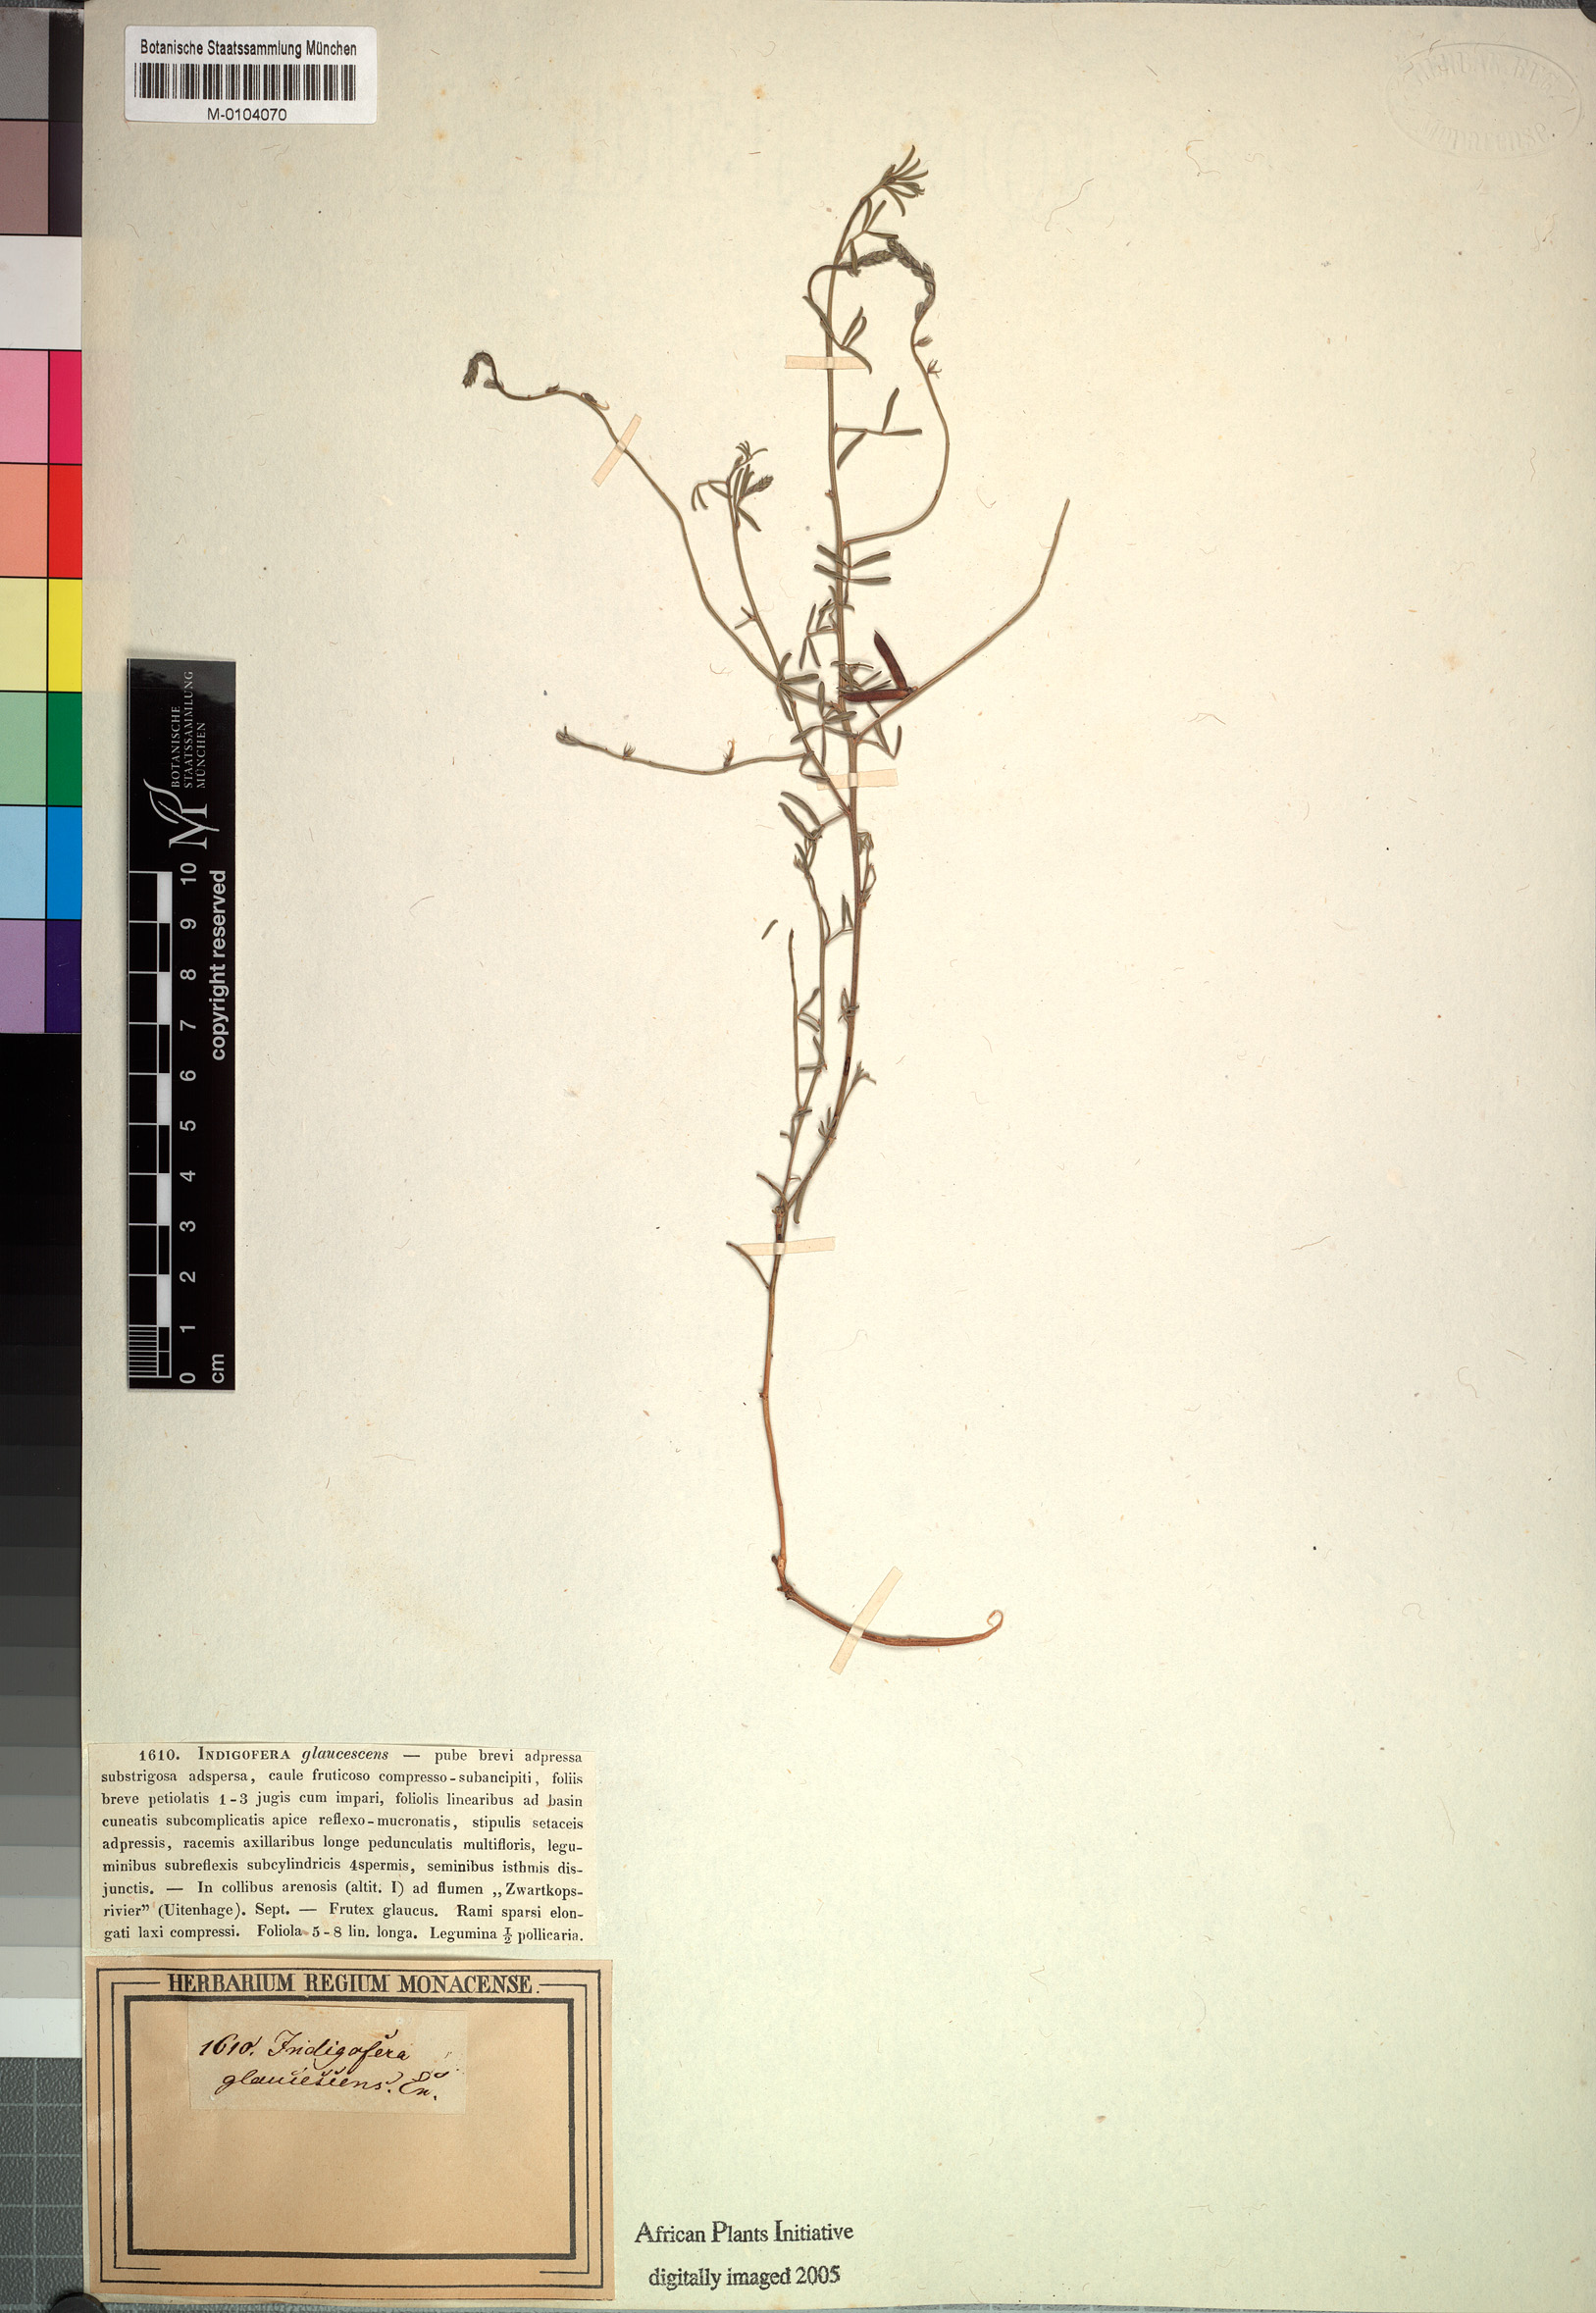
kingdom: Plantae
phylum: Tracheophyta
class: Magnoliopsida
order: Fabales
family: Fabaceae
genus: Indigofera
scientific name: Indigofera glaucescens
